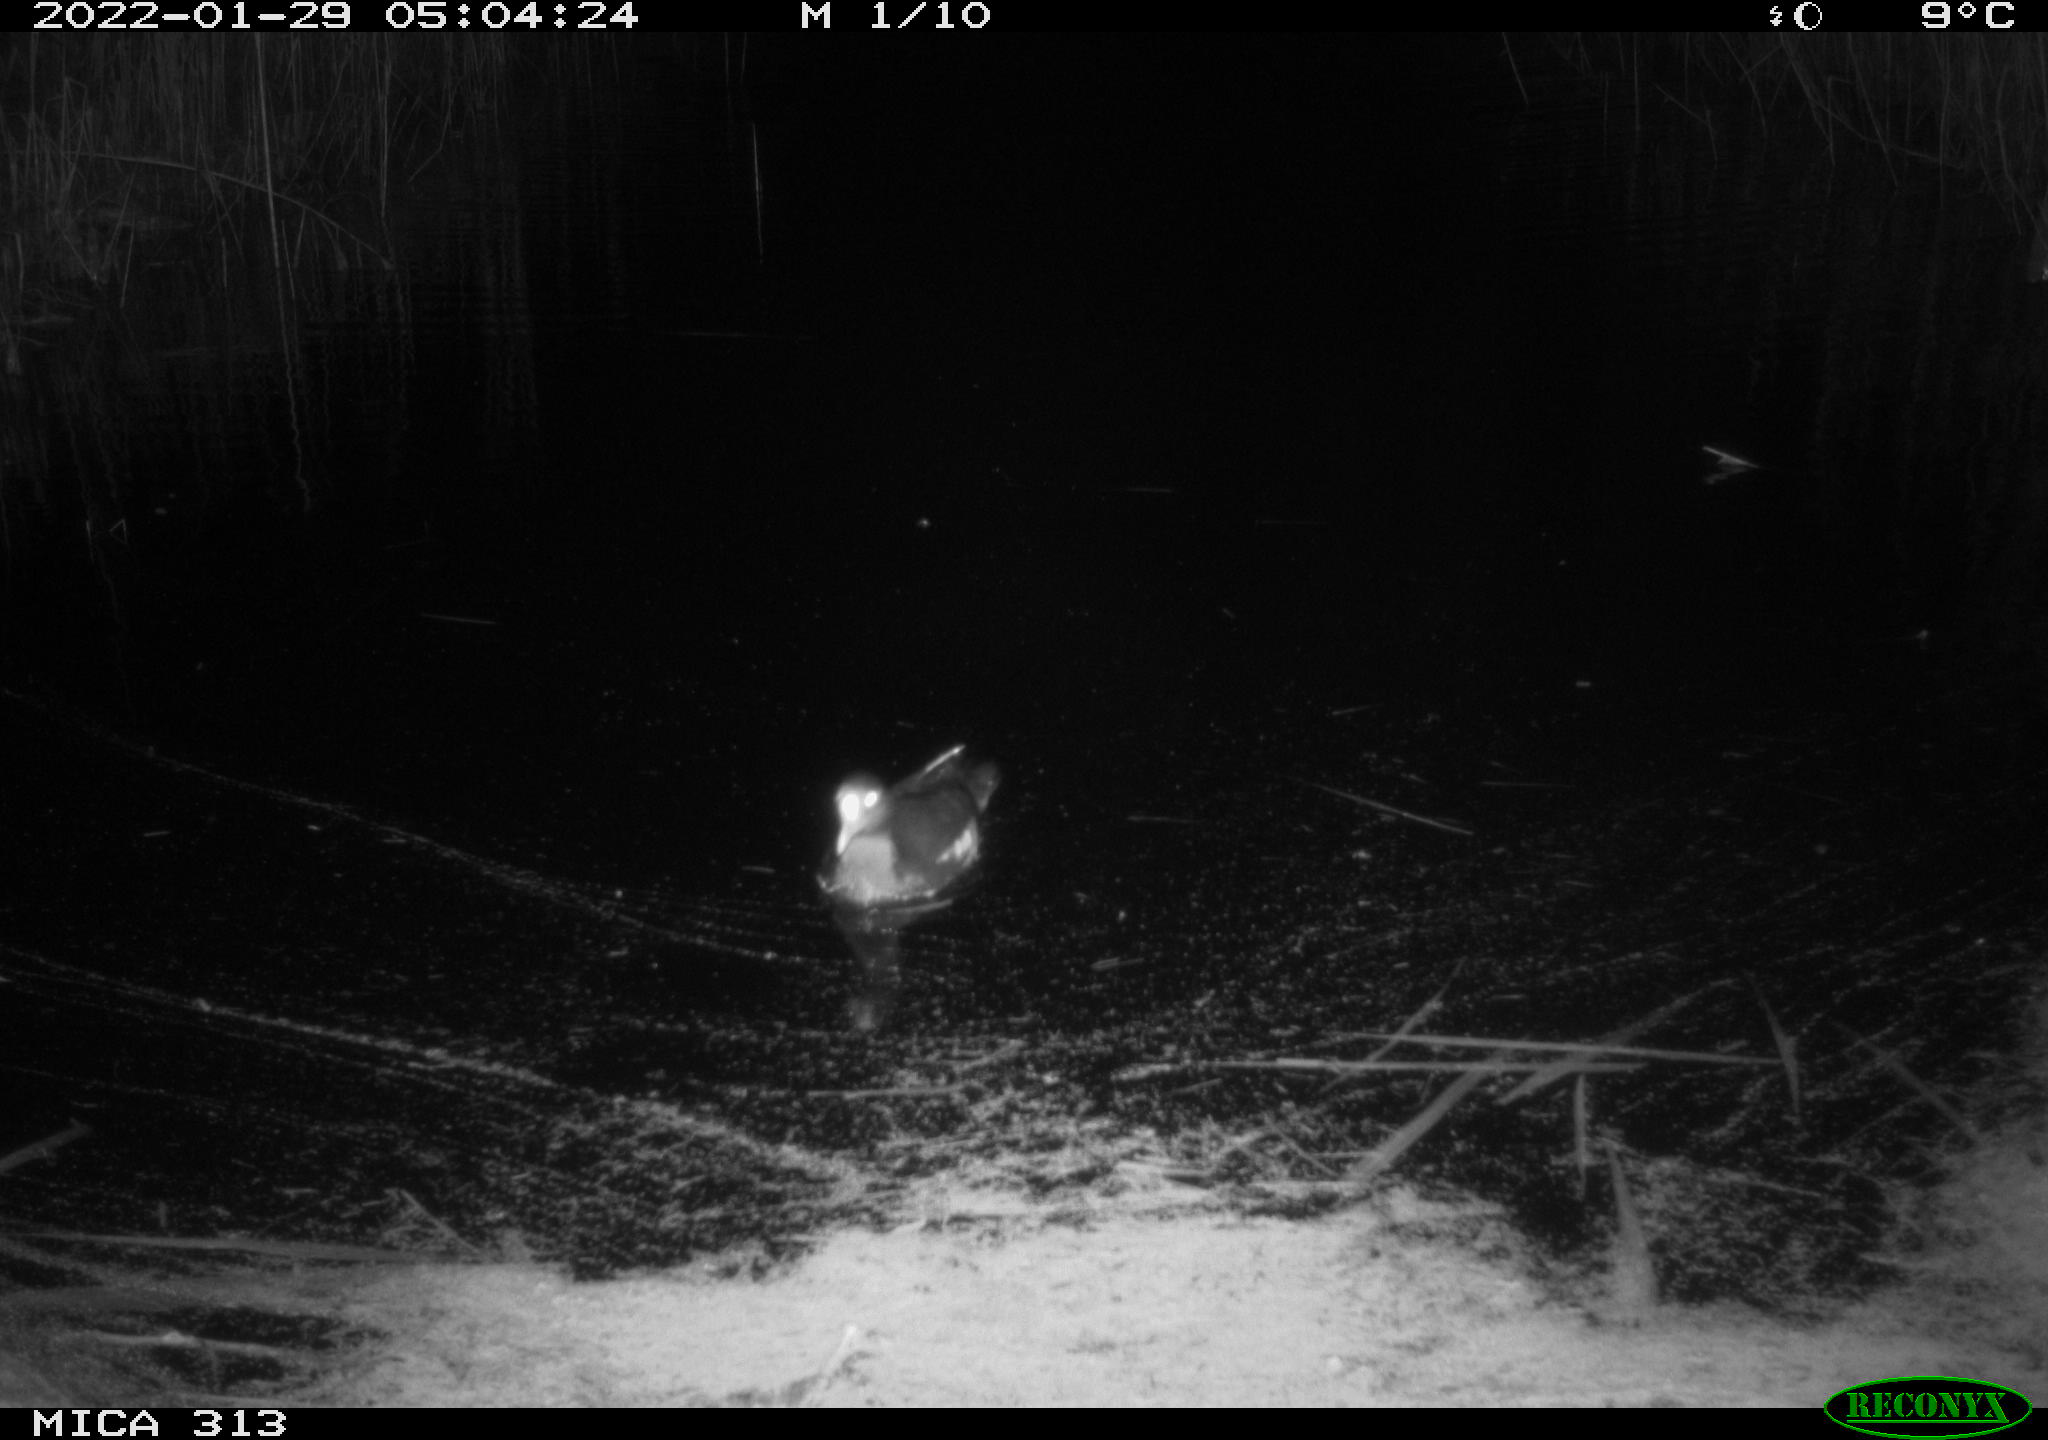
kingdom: Animalia
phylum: Chordata
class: Aves
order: Gruiformes
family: Rallidae
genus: Gallinula
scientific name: Gallinula chloropus
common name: Common moorhen
